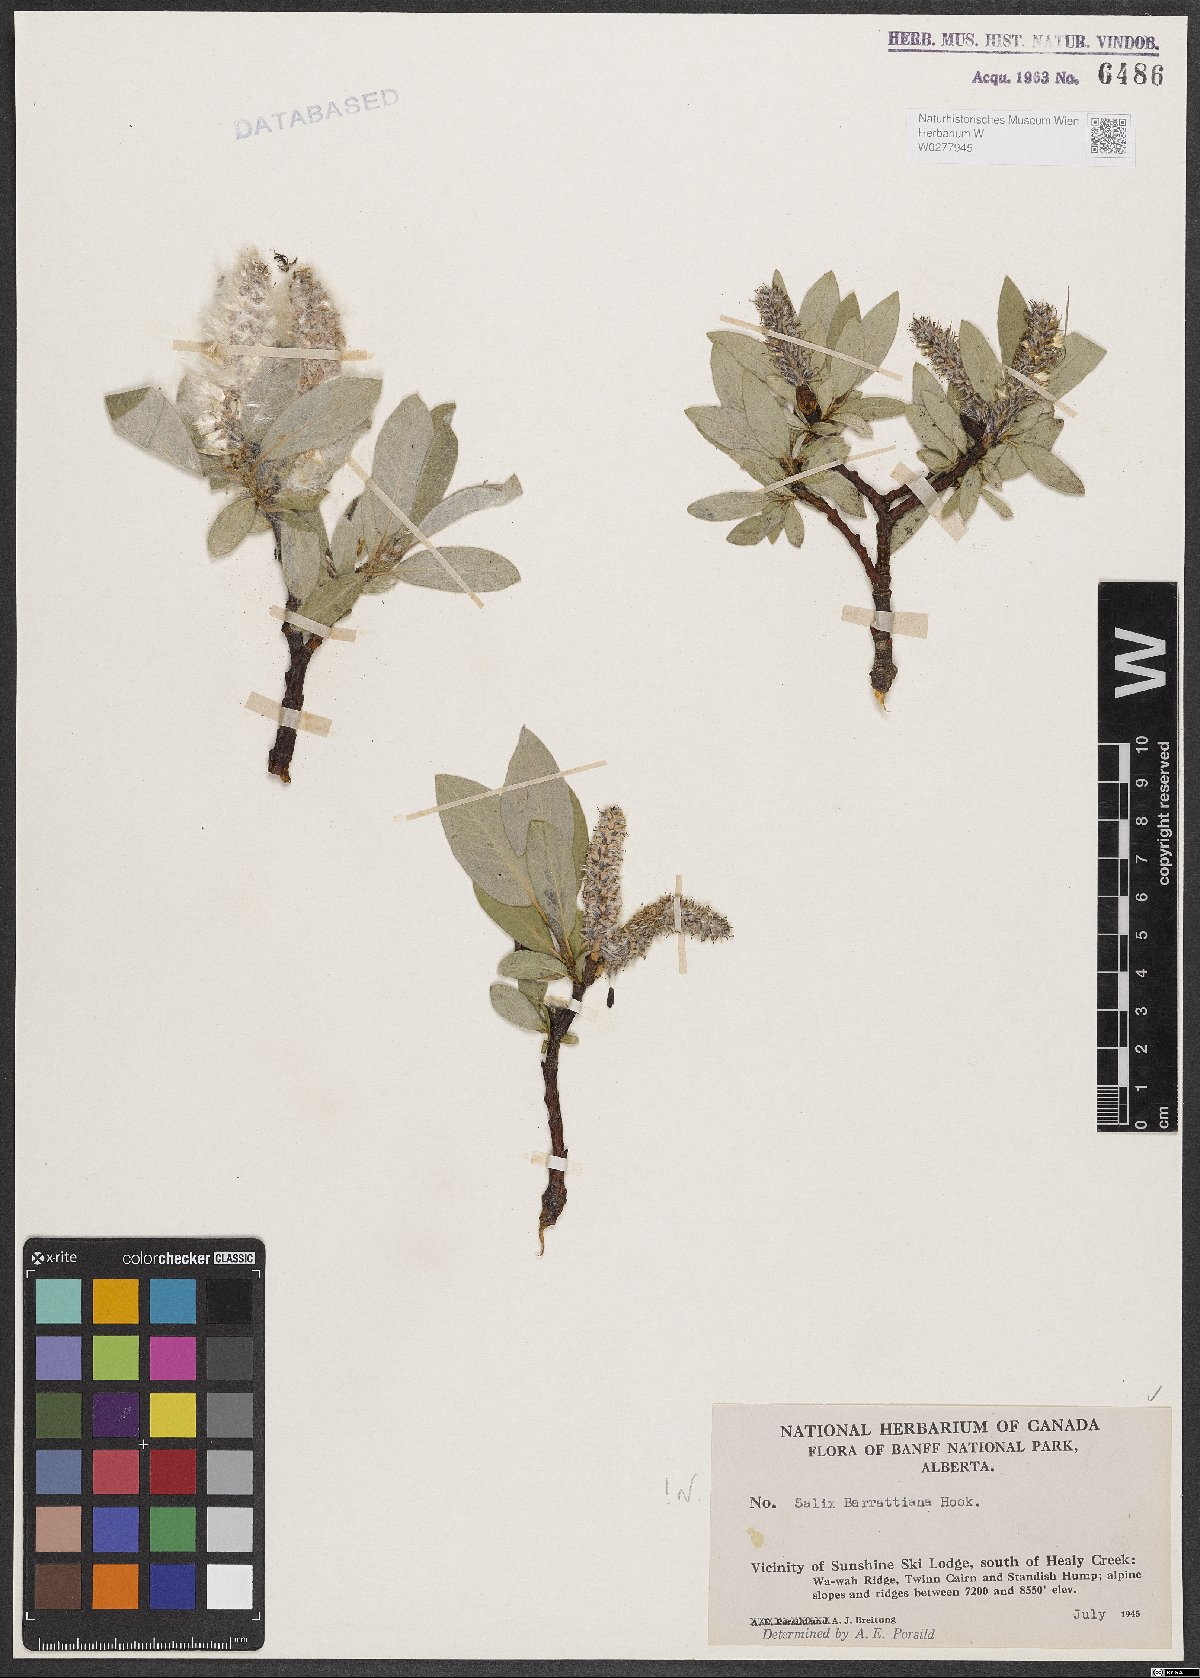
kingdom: Plantae
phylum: Tracheophyta
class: Magnoliopsida
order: Malpighiales
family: Salicaceae
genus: Salix
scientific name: Salix barrattiana
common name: Barratt's willow
